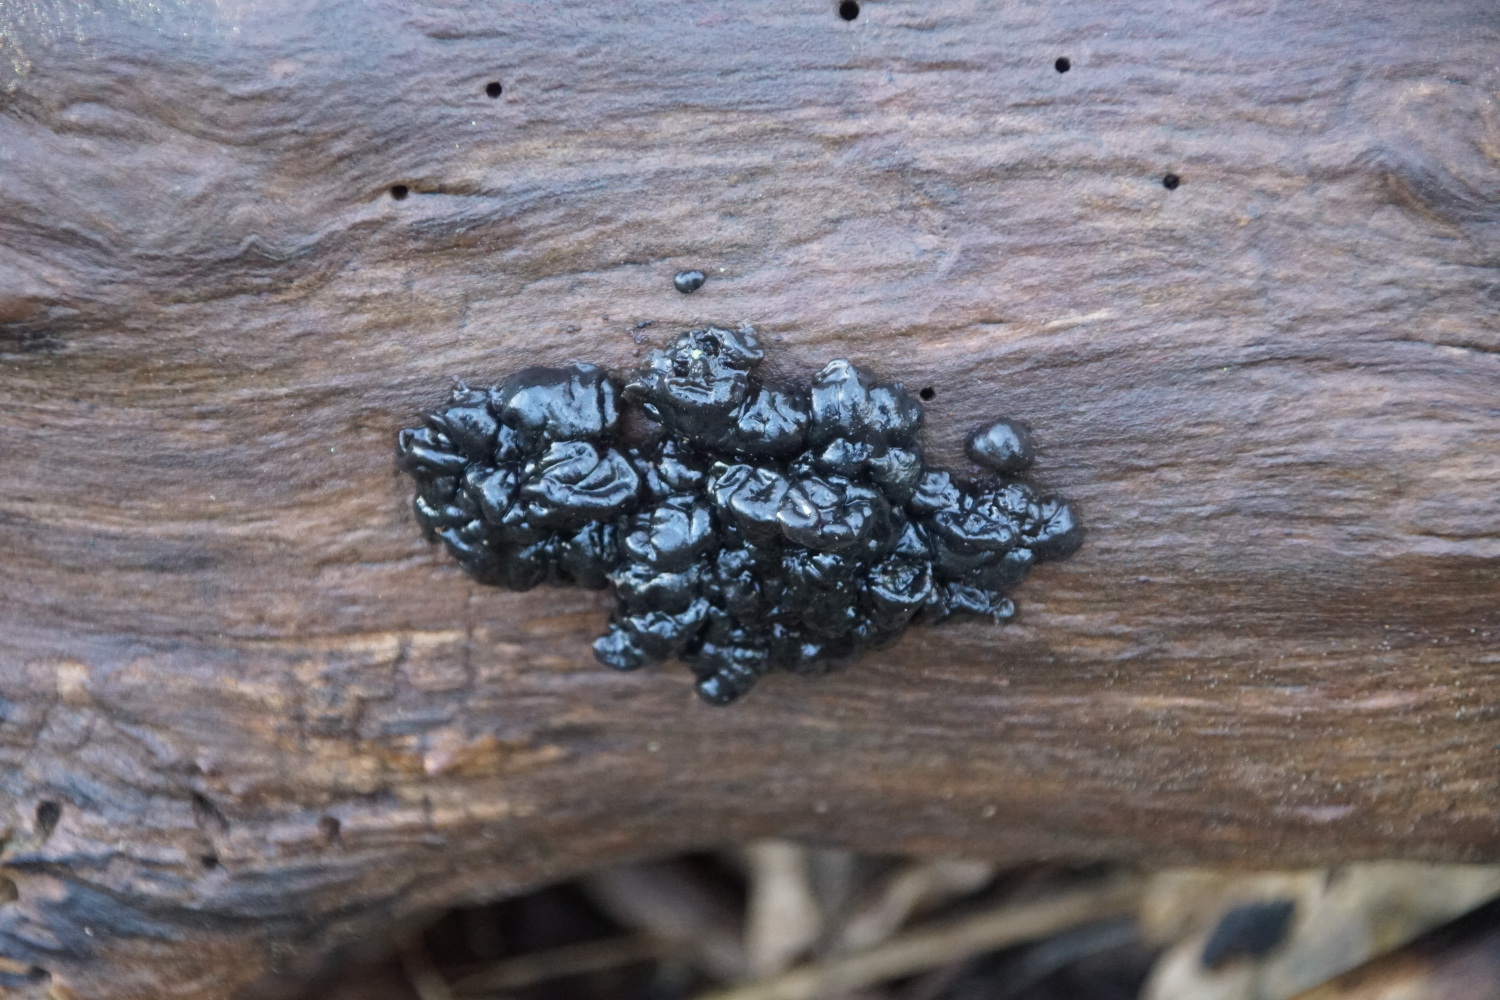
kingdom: Fungi
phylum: Basidiomycota
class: Agaricomycetes
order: Auriculariales
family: Auriculariaceae
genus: Exidia
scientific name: Exidia nigricans
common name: almindelig bævretop
